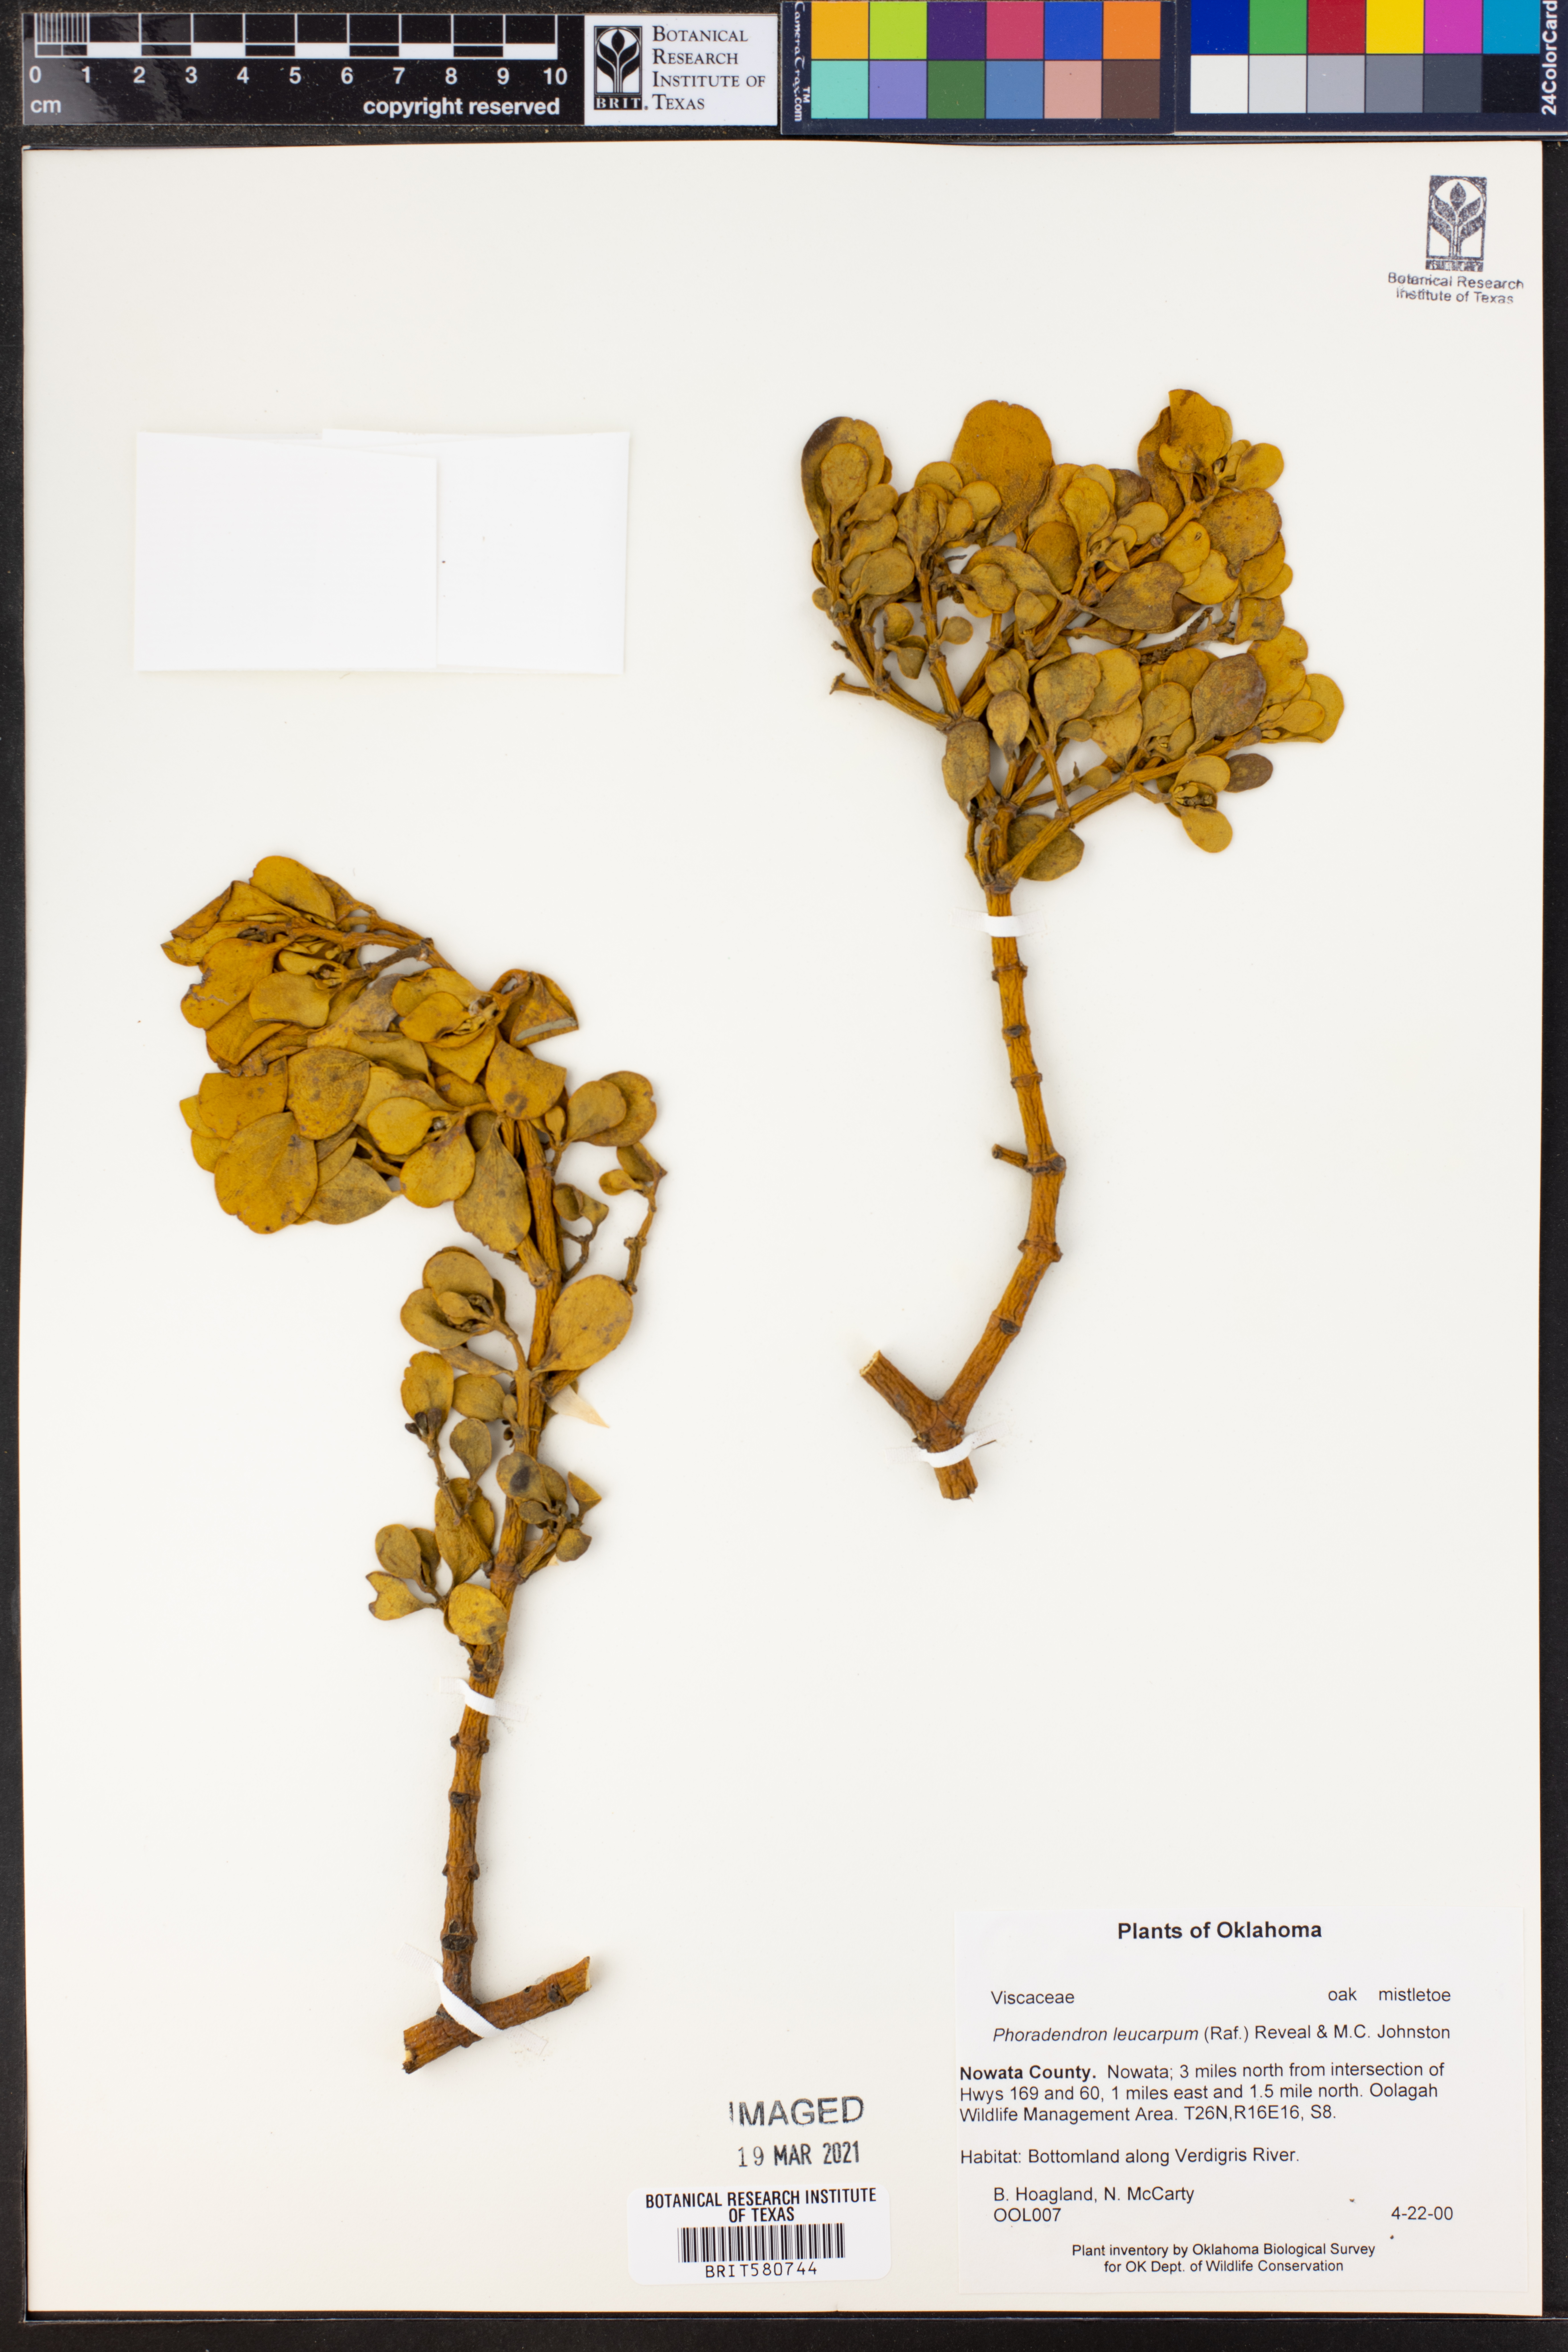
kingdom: Plantae
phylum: Tracheophyta
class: Magnoliopsida
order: Santalales
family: Viscaceae
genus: Phoradendron
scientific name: Phoradendron leucarpum
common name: Pacific mistletoe
